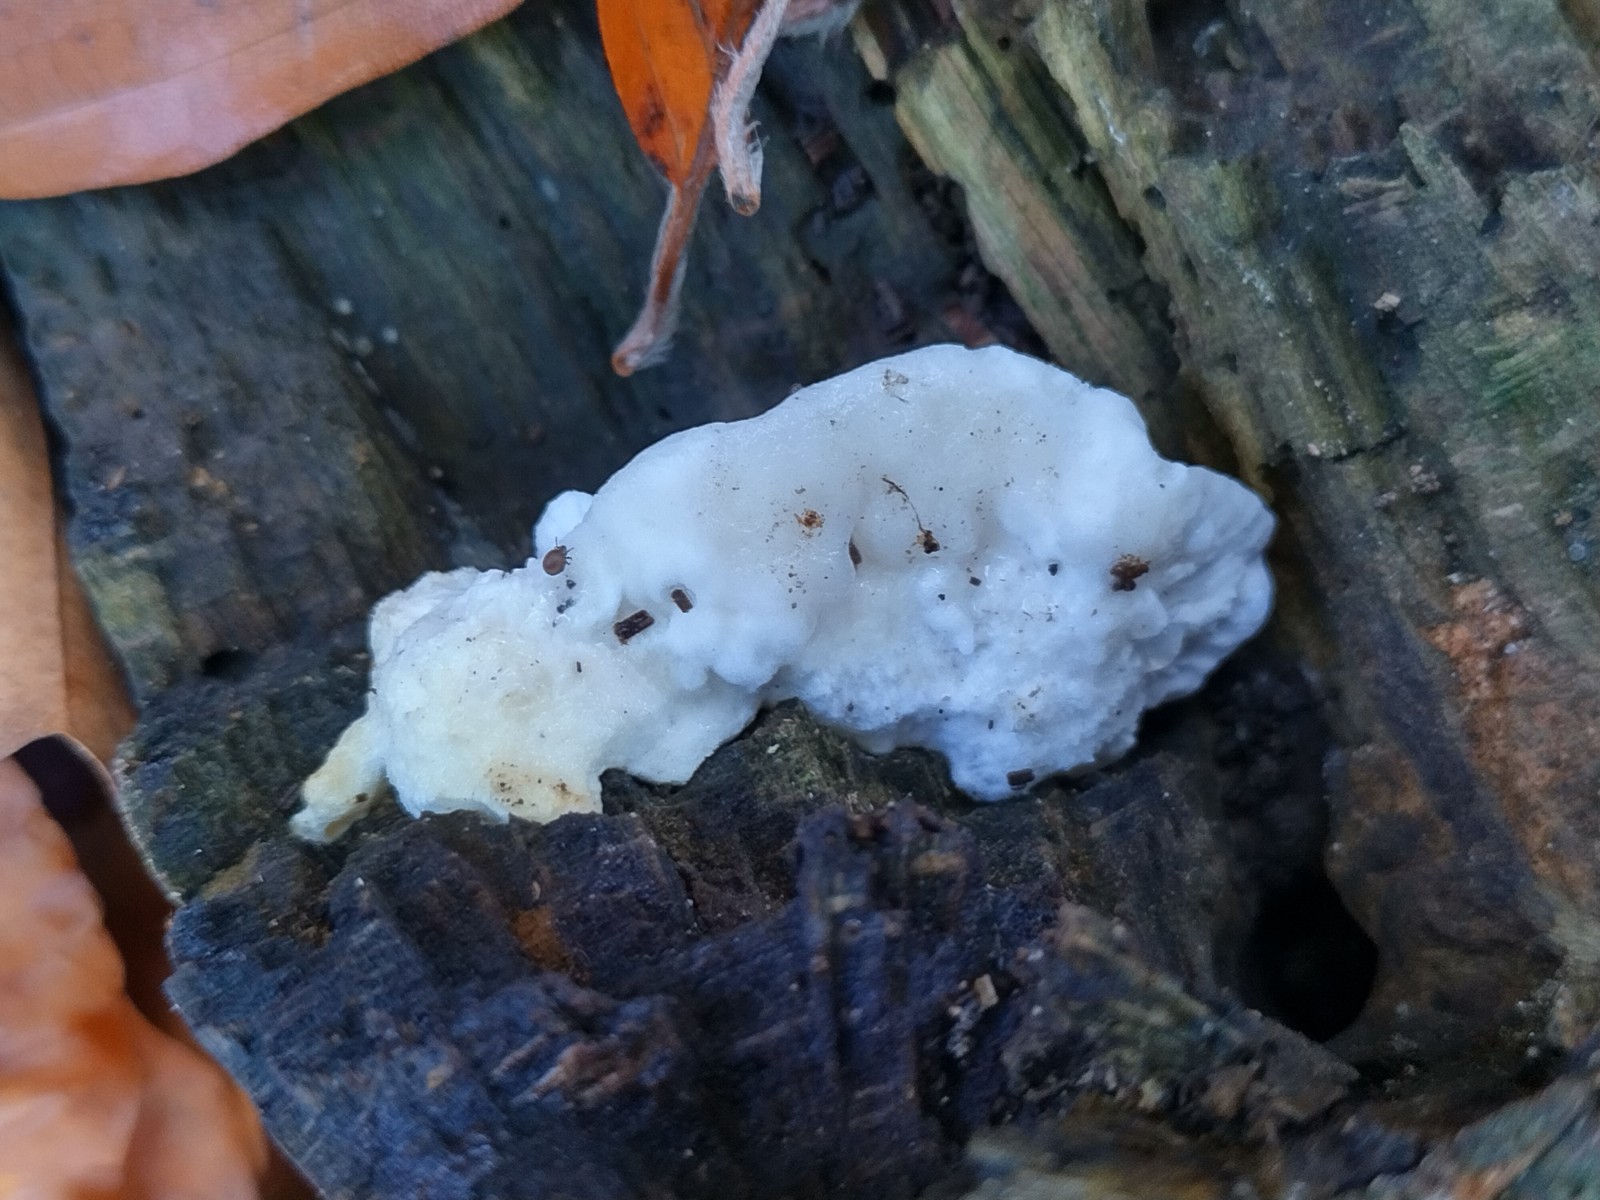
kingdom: Fungi
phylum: Basidiomycota
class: Agaricomycetes
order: Polyporales
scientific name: Polyporales
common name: poresvampordenen
